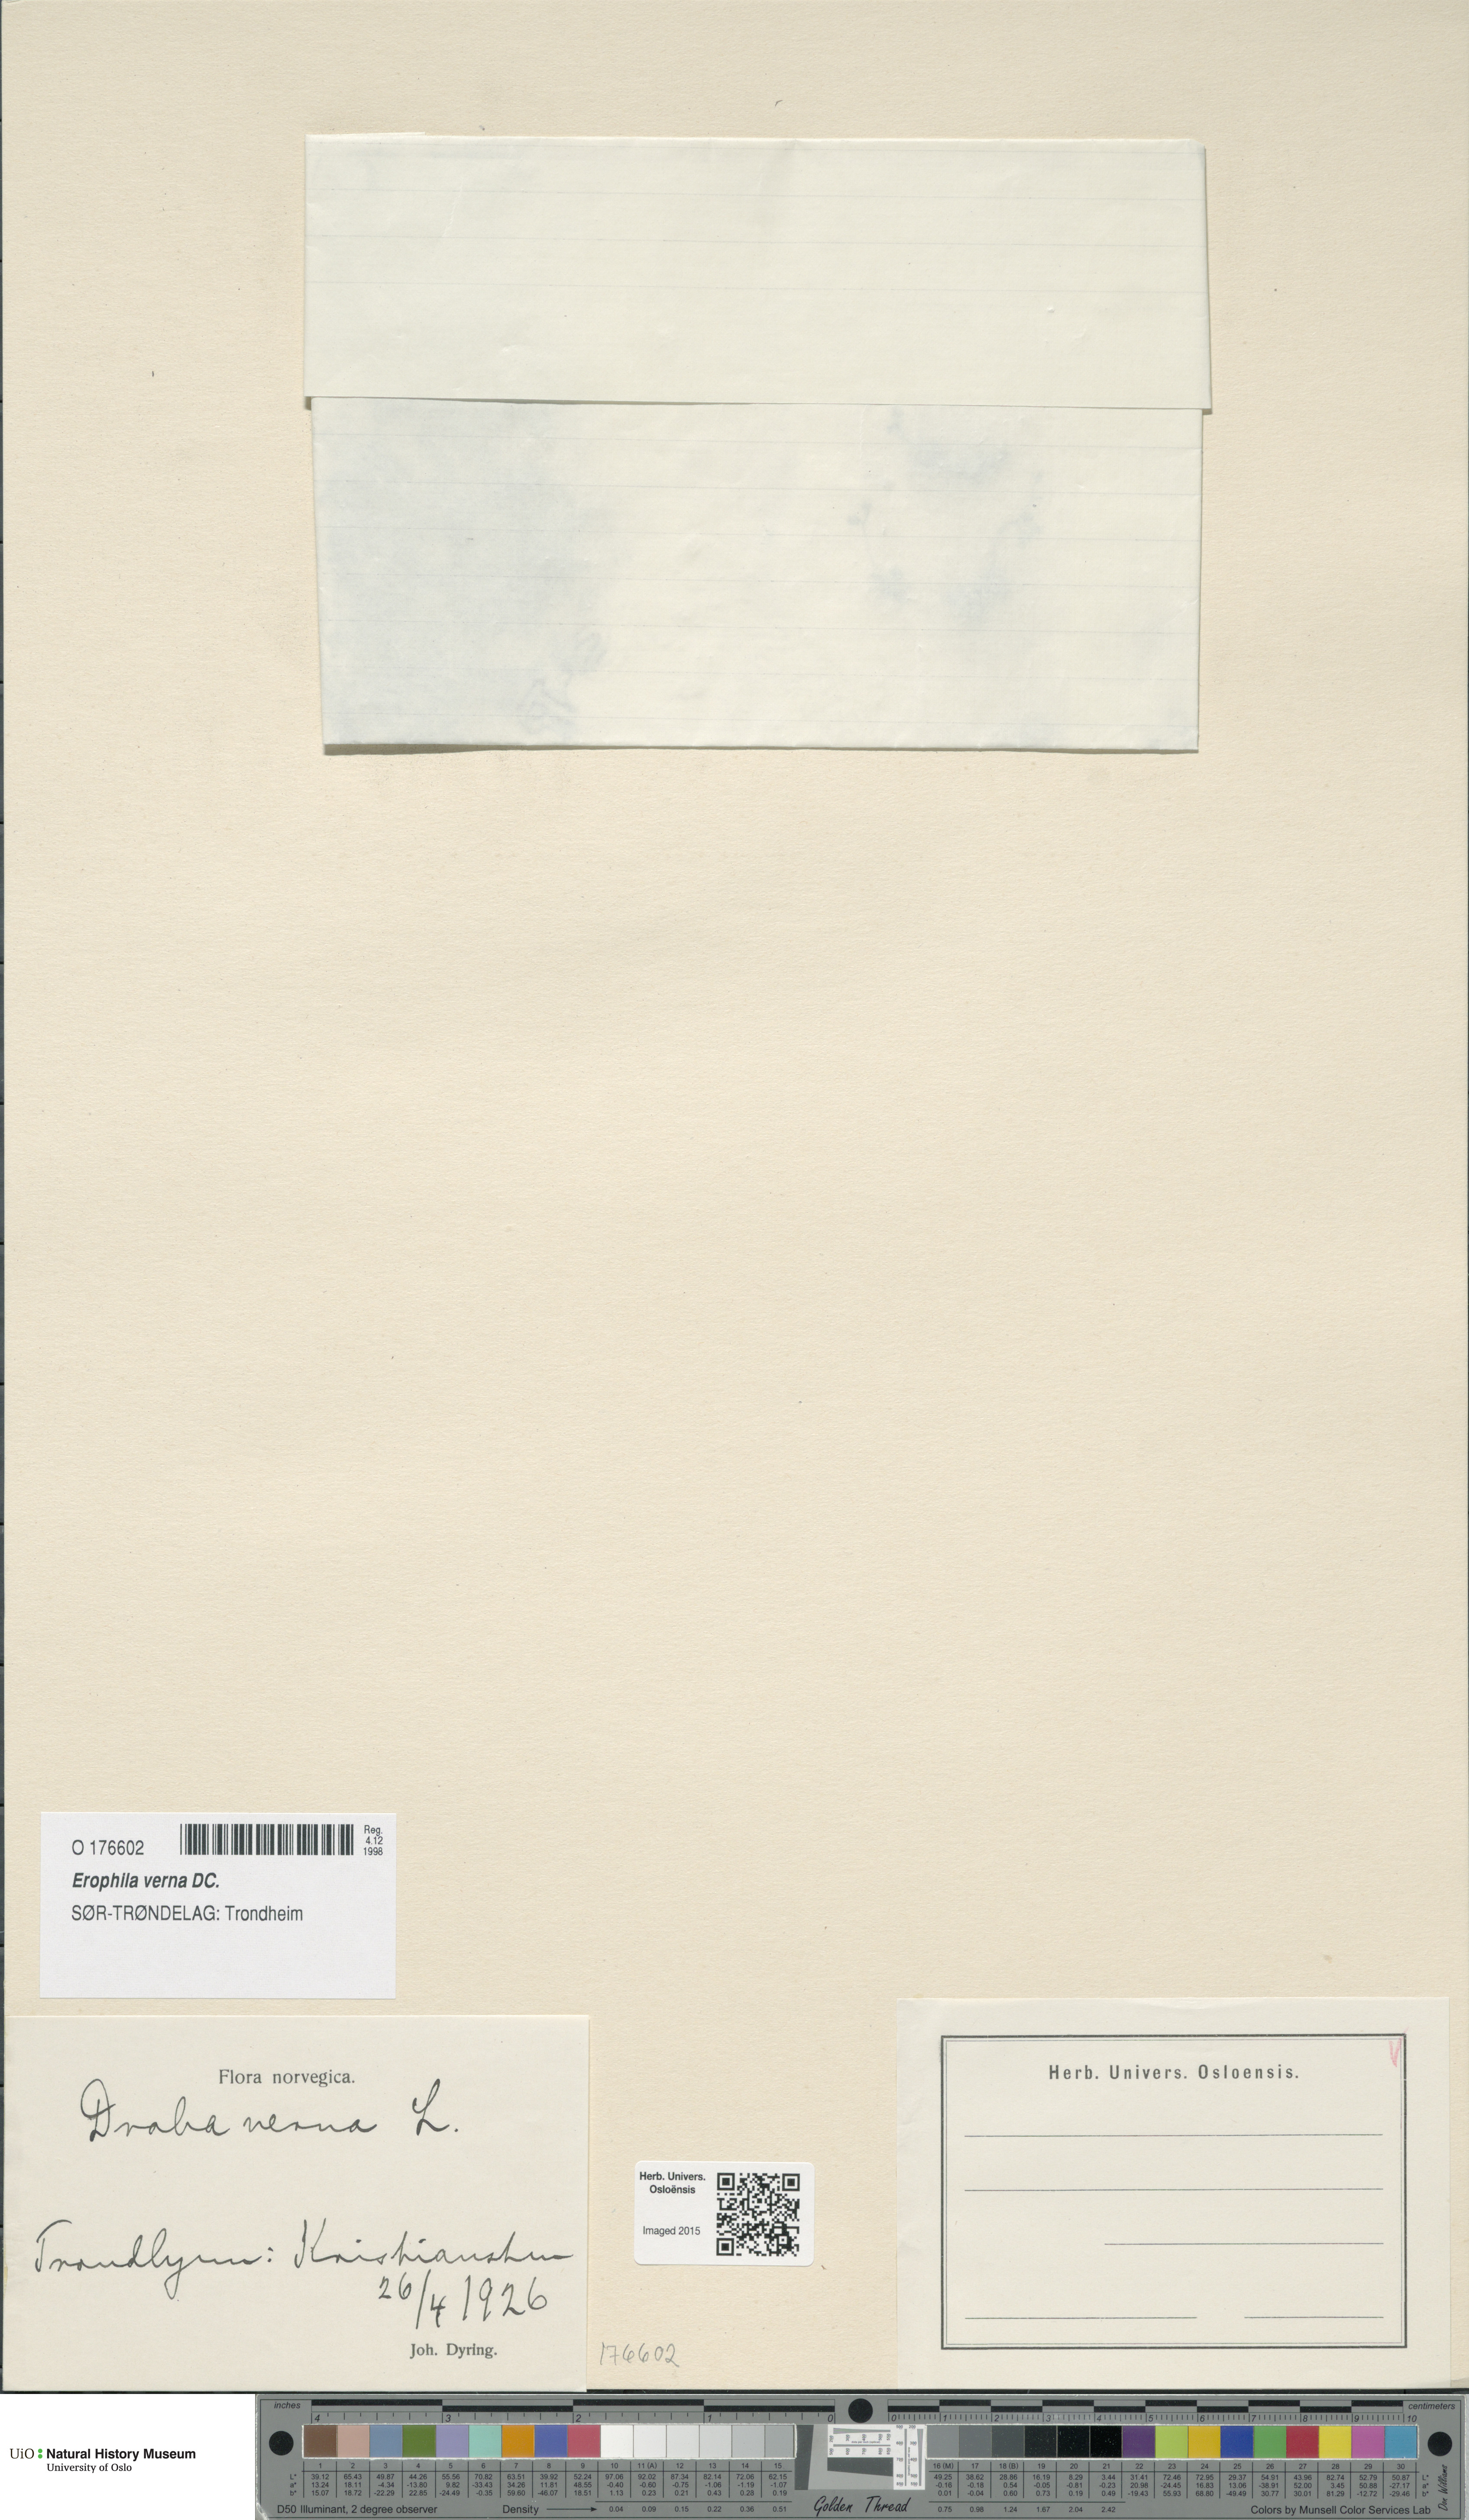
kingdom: Plantae
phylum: Tracheophyta
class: Magnoliopsida
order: Brassicales
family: Brassicaceae
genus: Draba
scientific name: Draba verna
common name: Spring draba
